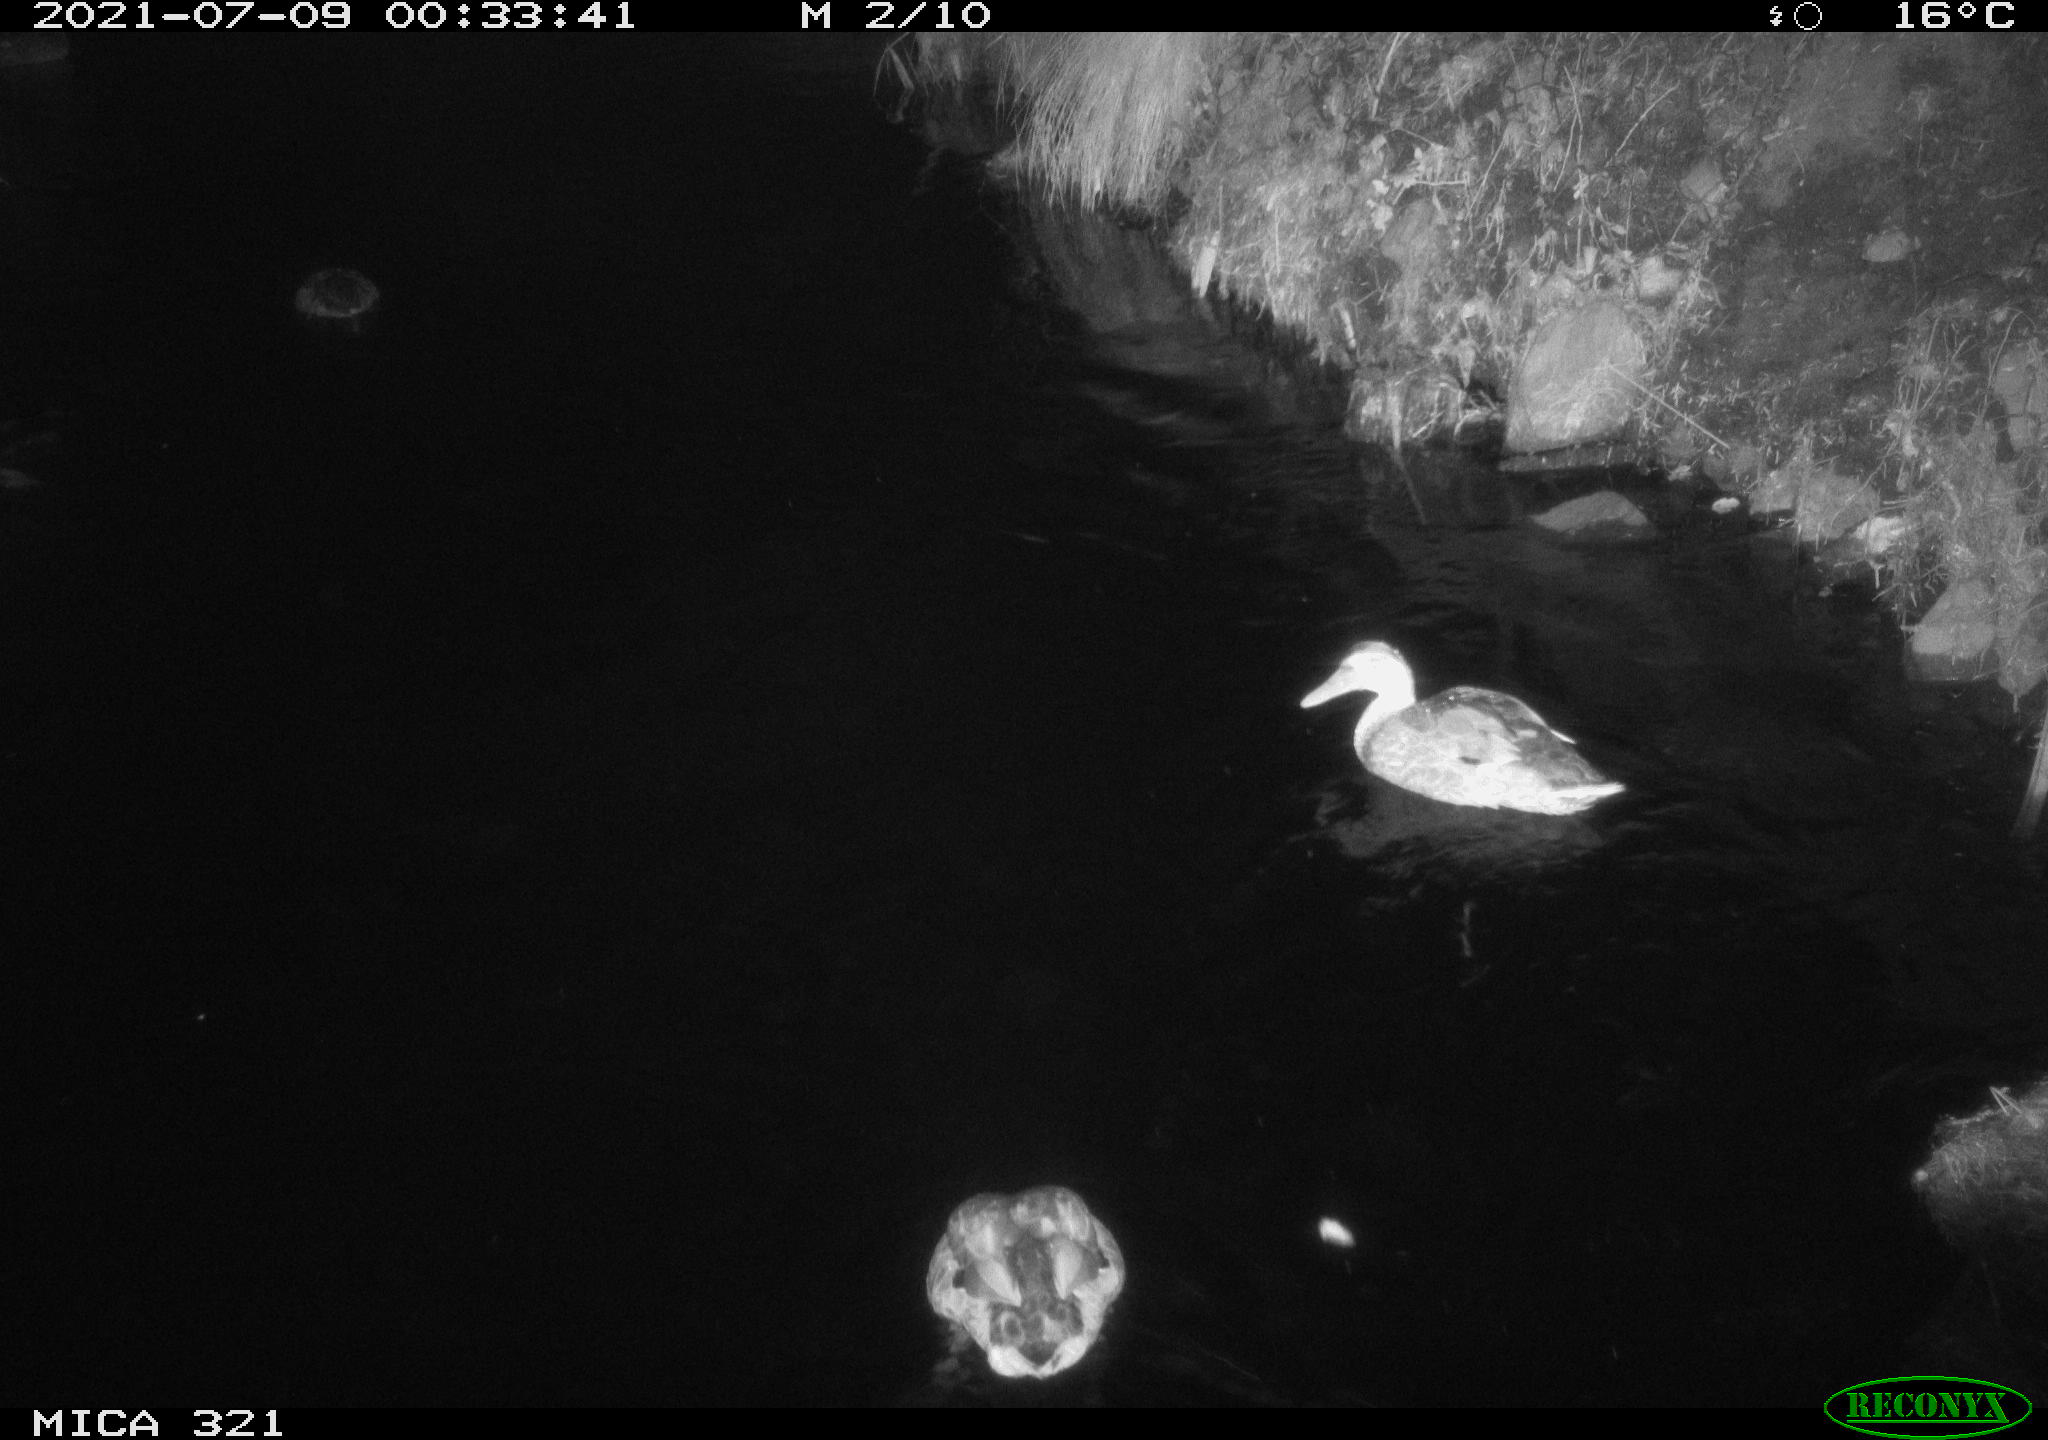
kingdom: Animalia
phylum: Chordata
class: Aves
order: Anseriformes
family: Anatidae
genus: Anas
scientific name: Anas platyrhynchos
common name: Mallard
